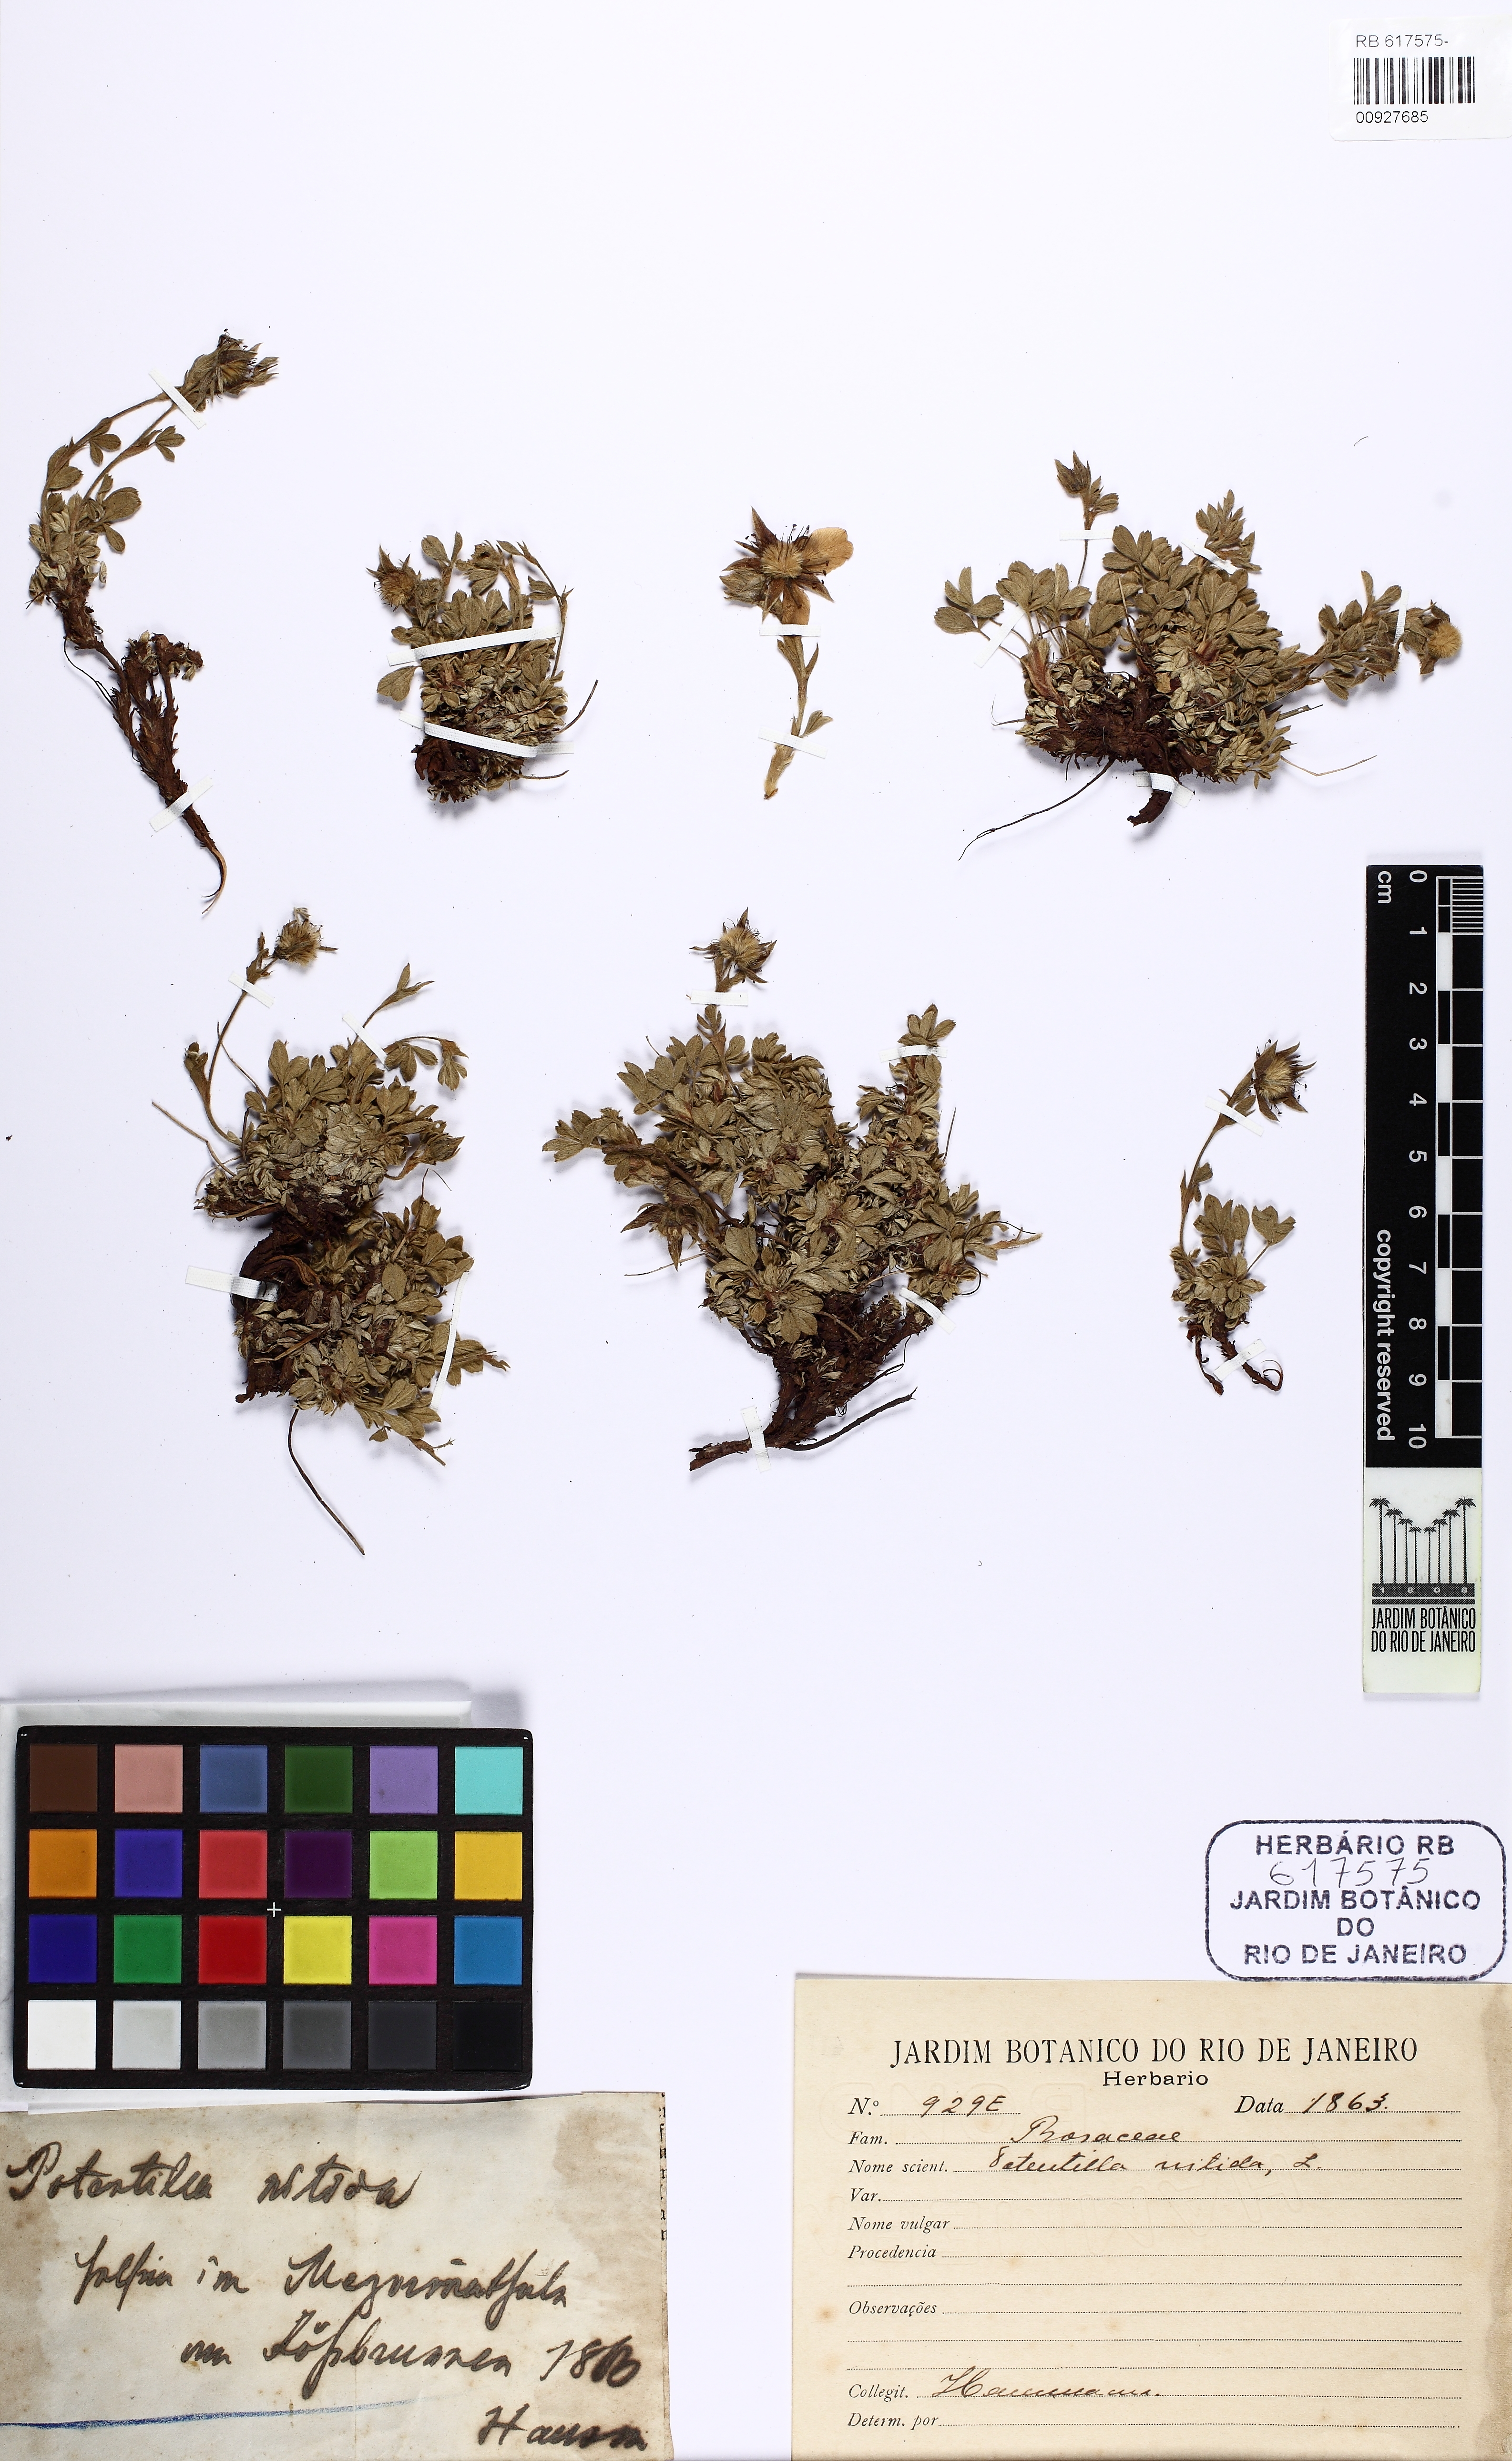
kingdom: Plantae
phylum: Tracheophyta
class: Magnoliopsida
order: Rosales
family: Rosaceae
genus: Potentilla
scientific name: Potentilla nitida
